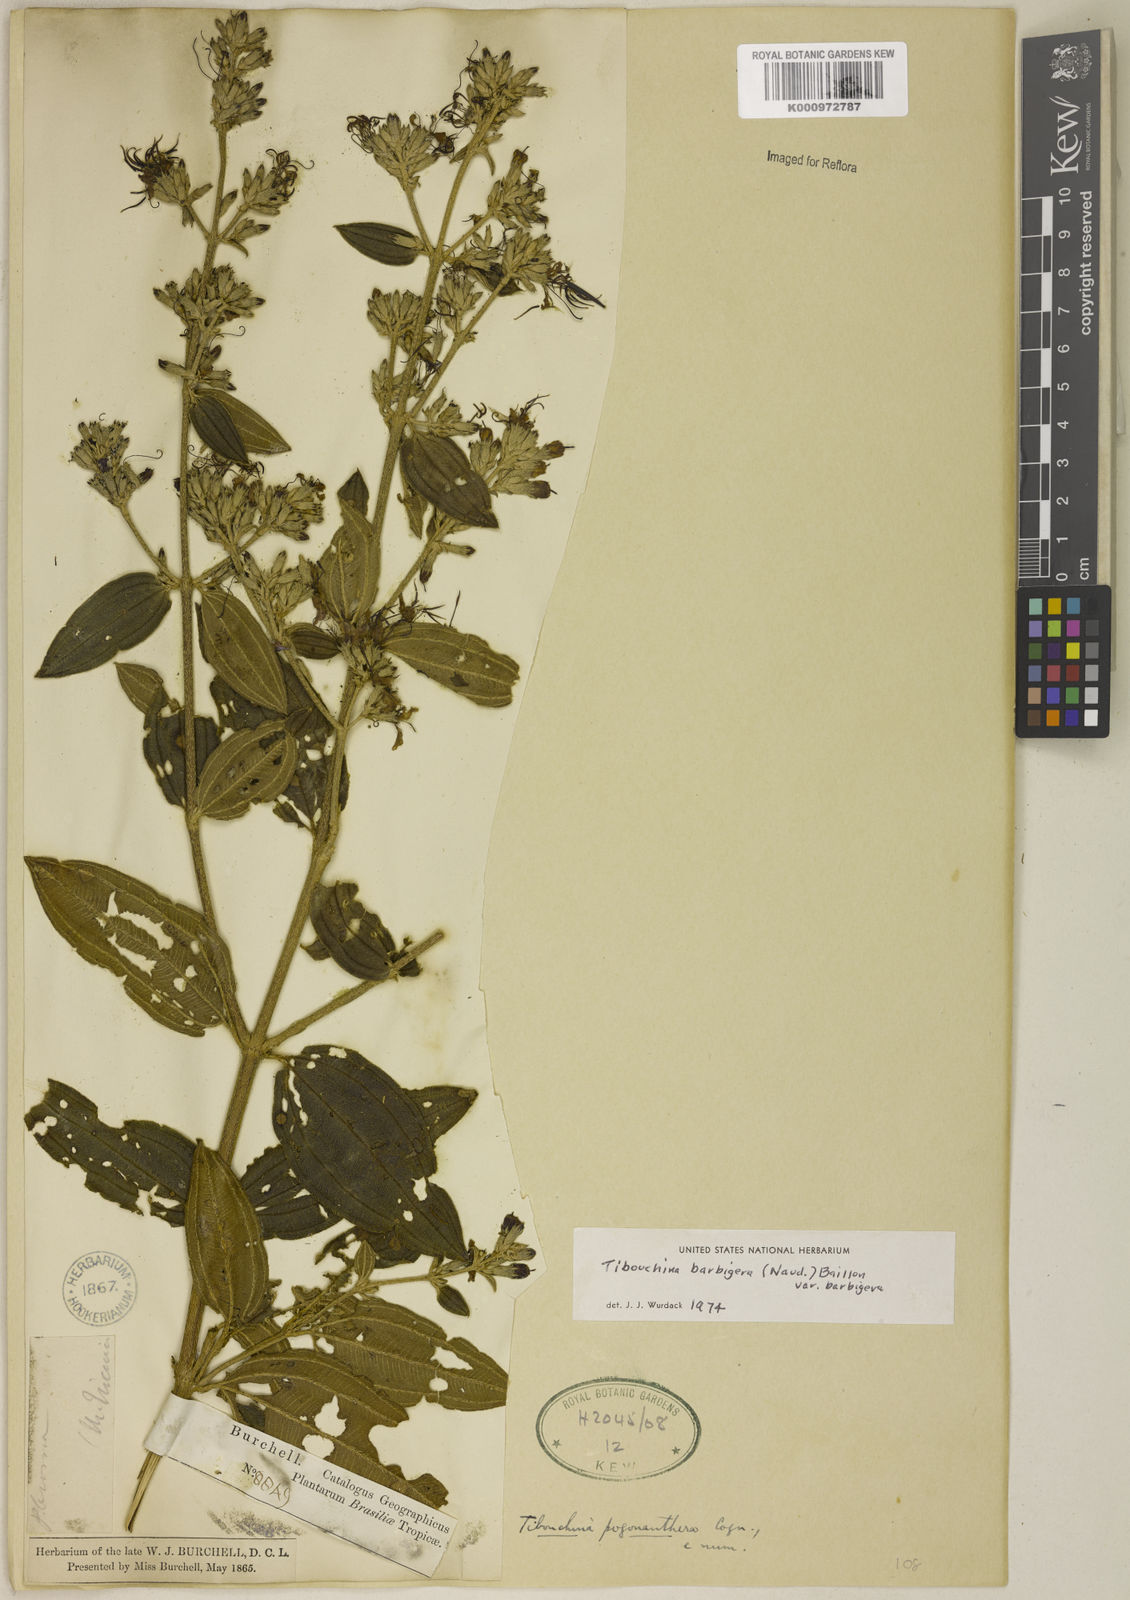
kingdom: Plantae
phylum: Tracheophyta
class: Magnoliopsida
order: Myrtales
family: Melastomataceae
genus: Pleroma
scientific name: Pleroma barbigerum
